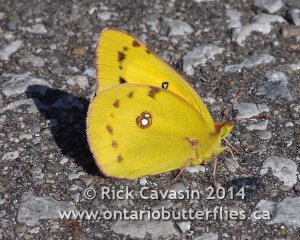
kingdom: Animalia
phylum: Arthropoda
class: Insecta
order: Lepidoptera
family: Pieridae
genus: Colias
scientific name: Colias eurytheme
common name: Orange Sulphur
